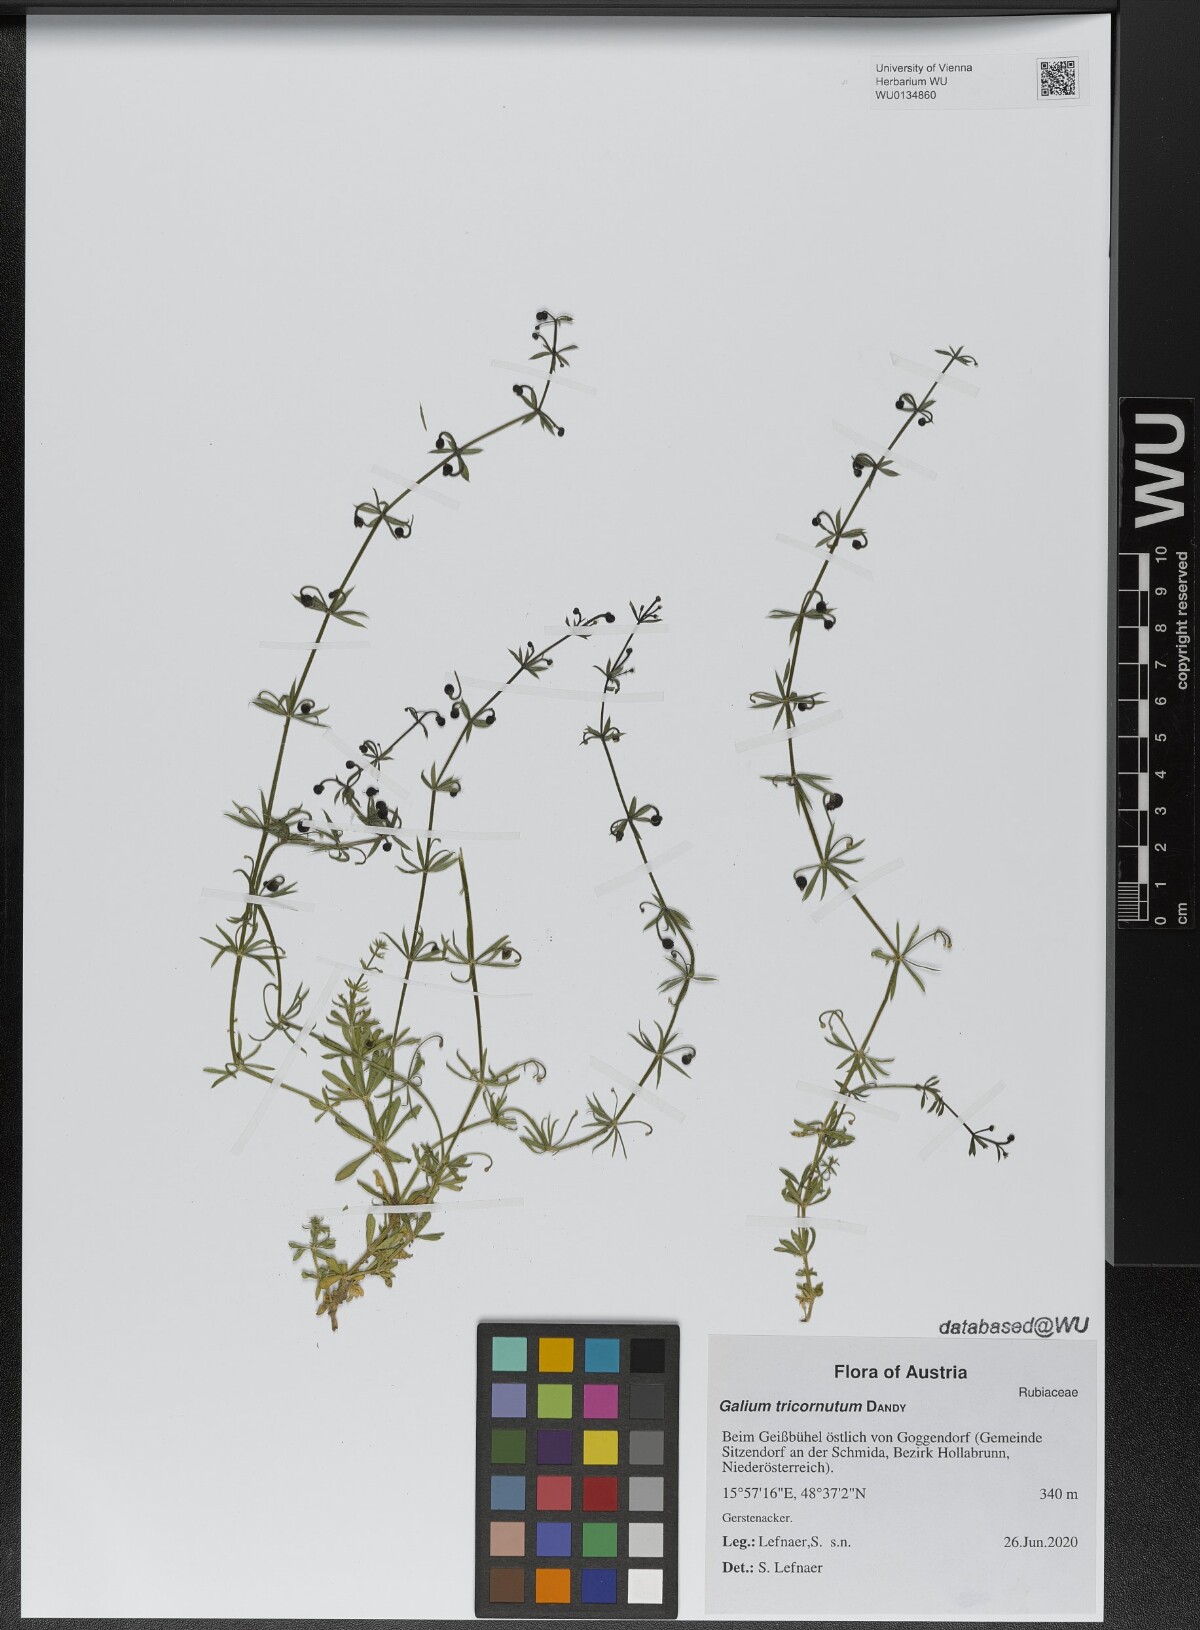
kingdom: Plantae
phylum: Tracheophyta
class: Magnoliopsida
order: Gentianales
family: Rubiaceae
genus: Galium
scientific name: Galium tricornutum
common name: Corn cleavers
